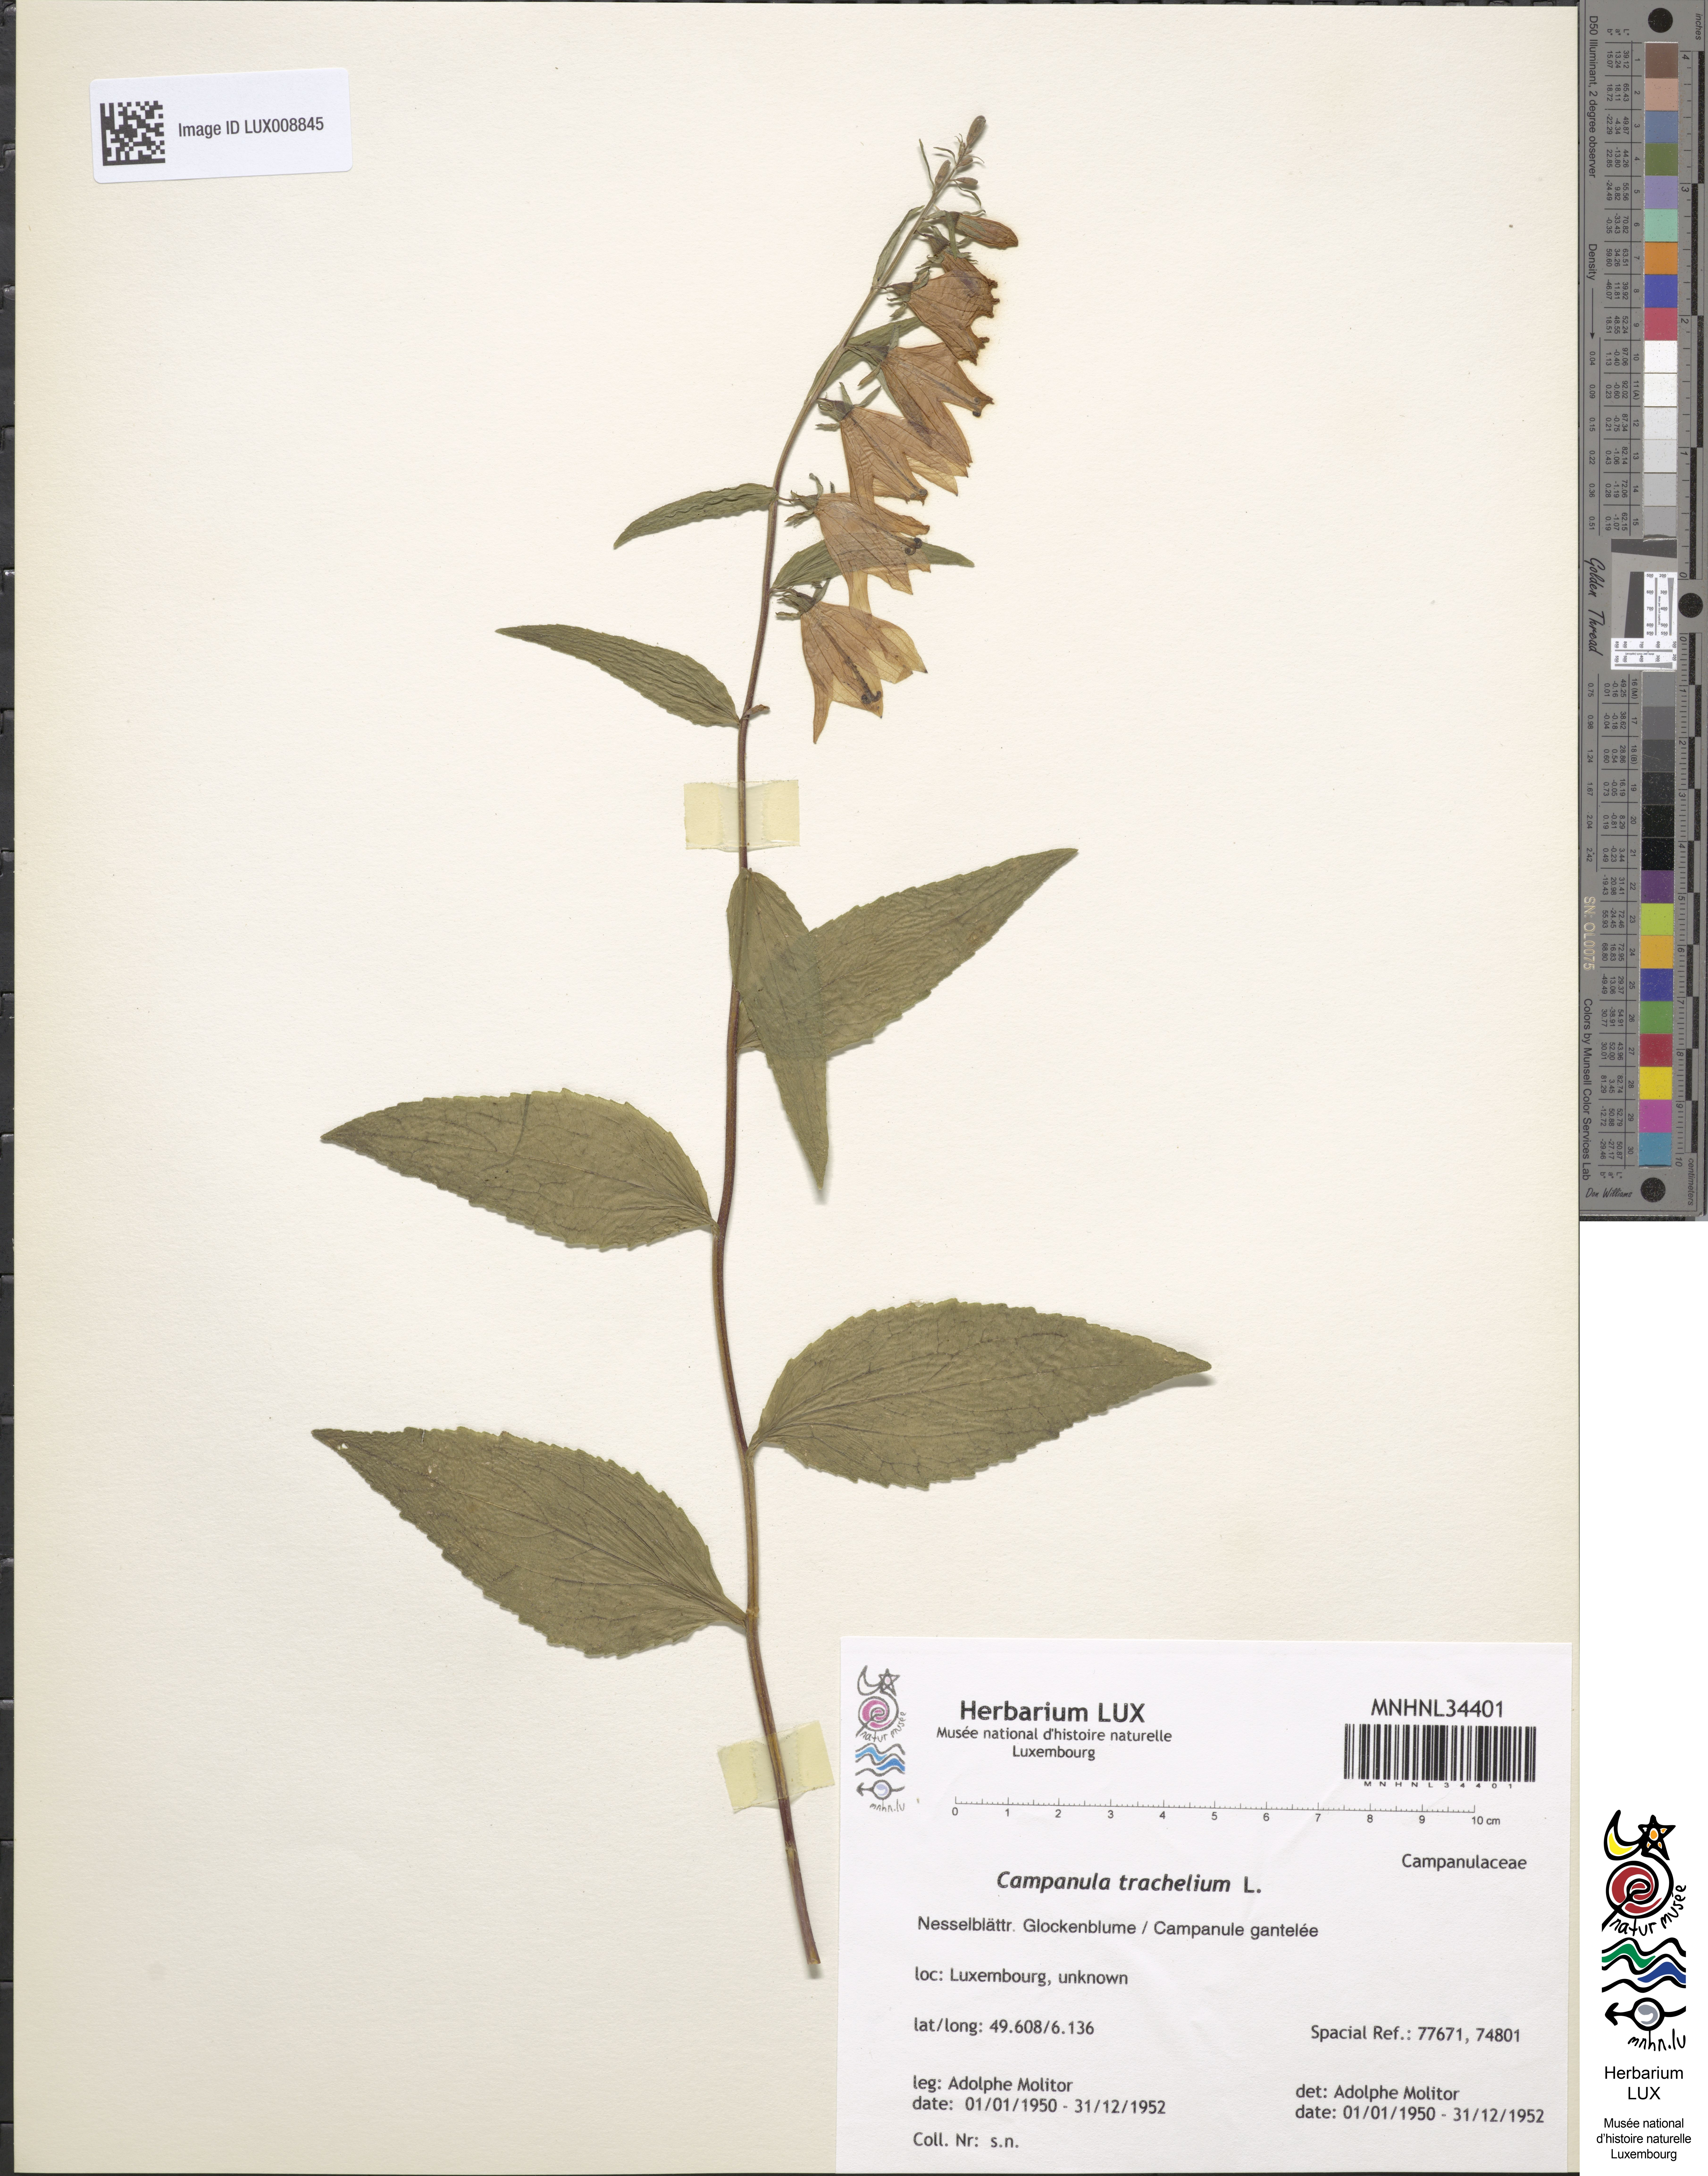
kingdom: Plantae
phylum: Tracheophyta
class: Magnoliopsida
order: Asterales
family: Campanulaceae
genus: Campanula
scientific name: Campanula trachelium
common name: Nettle-leaved bellflower
